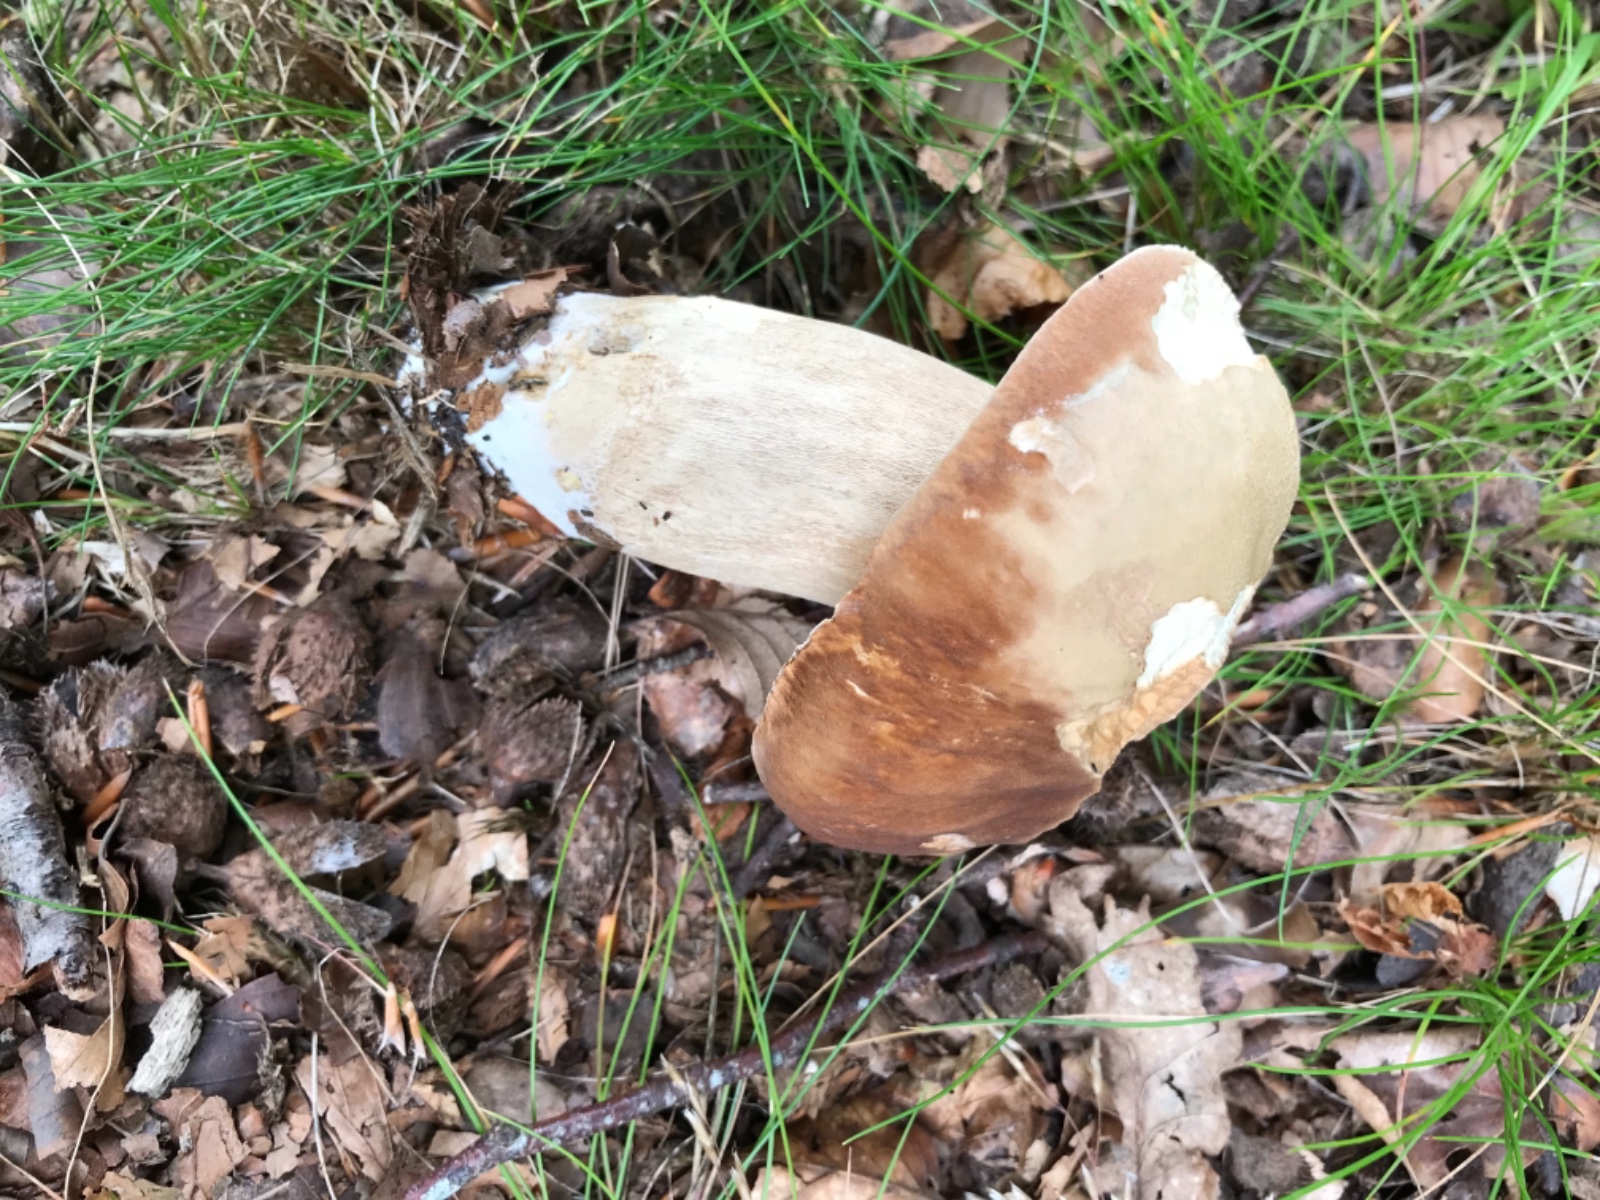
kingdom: Fungi
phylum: Basidiomycota
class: Agaricomycetes
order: Boletales
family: Boletaceae
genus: Boletus
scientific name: Boletus reticulatus
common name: sommer-rørhat
